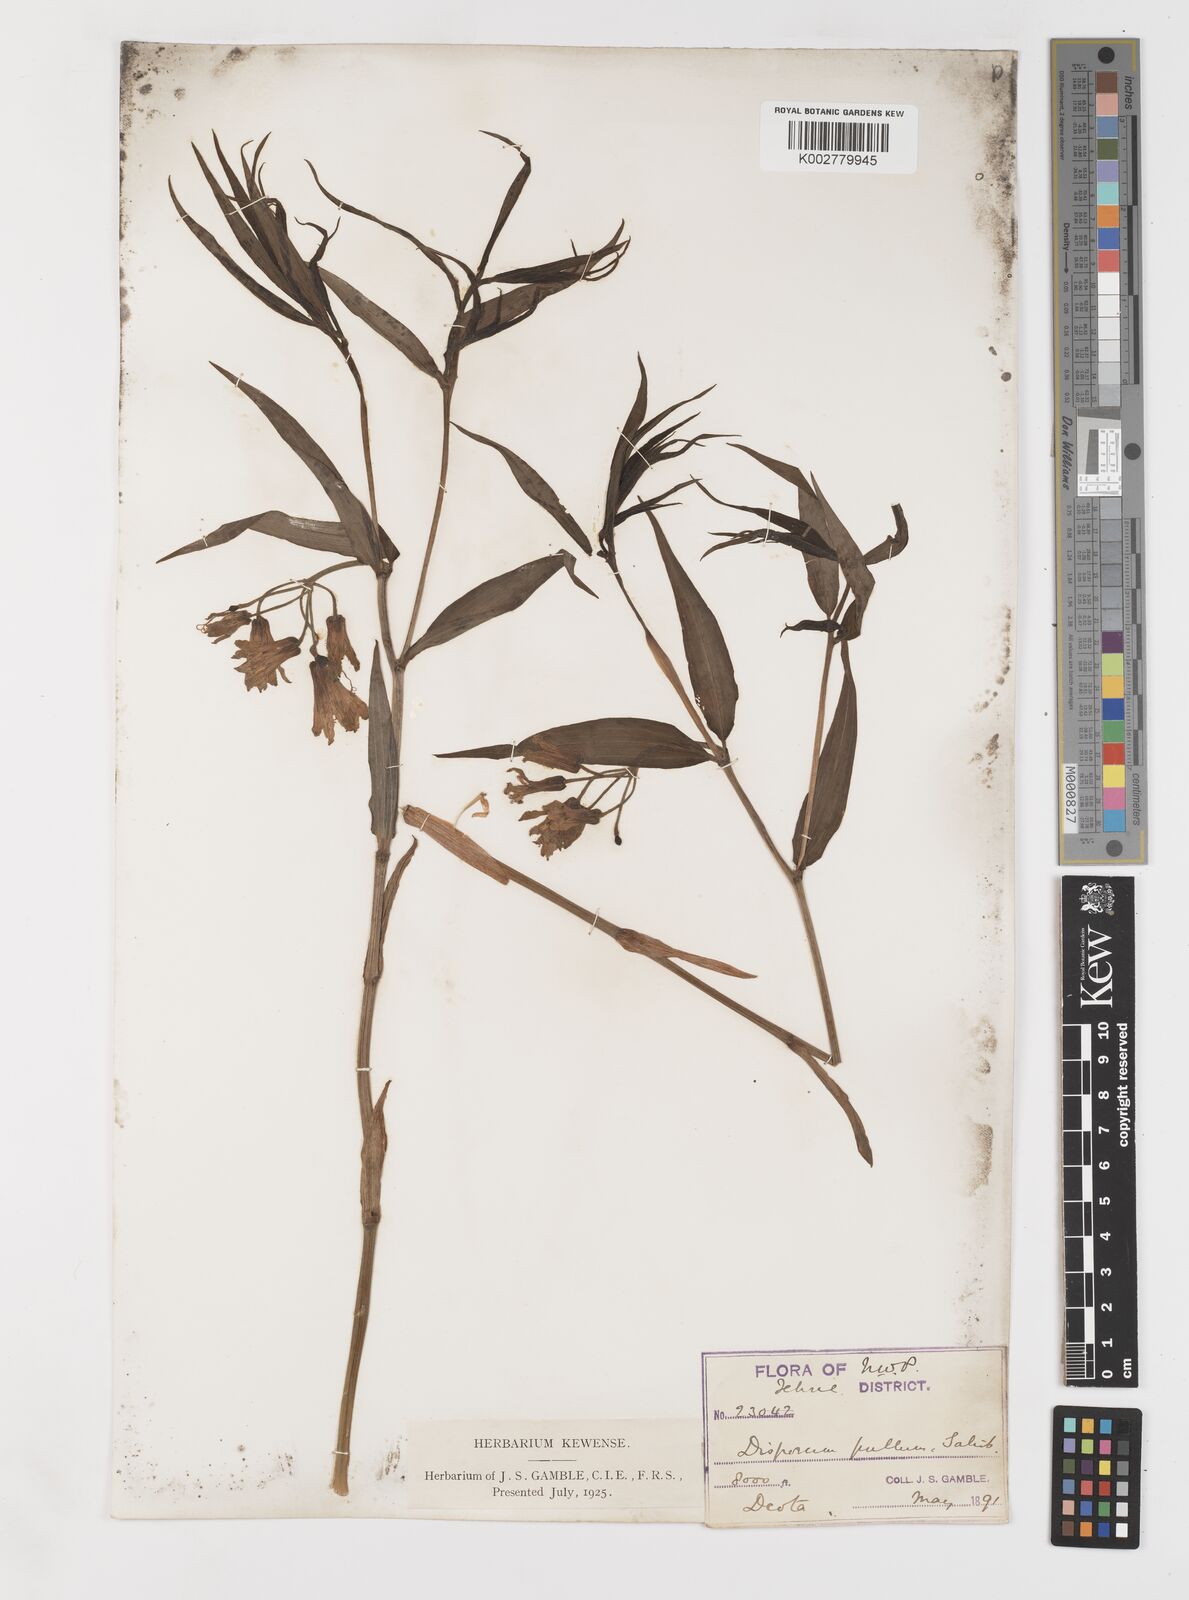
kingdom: Plantae
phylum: Tracheophyta
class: Liliopsida
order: Liliales
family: Colchicaceae
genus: Disporum
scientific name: Disporum cantoniense
